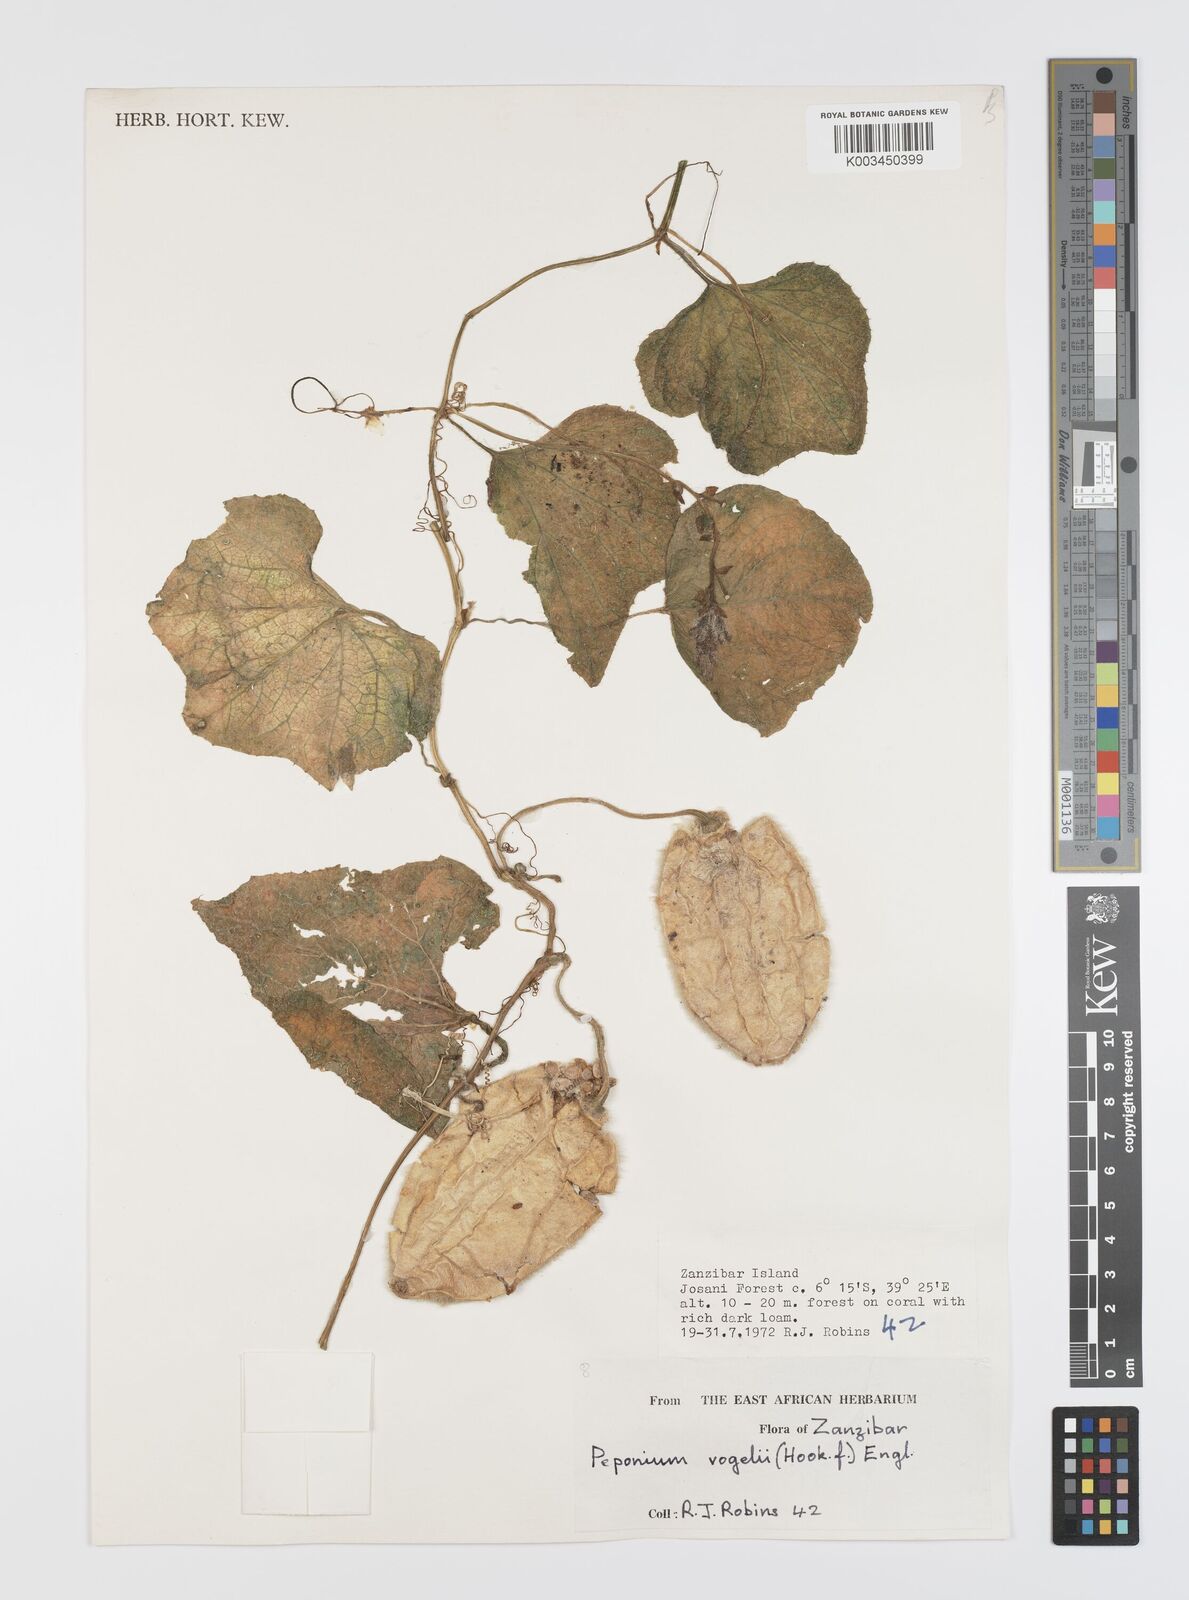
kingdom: Plantae
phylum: Tracheophyta
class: Magnoliopsida
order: Cucurbitales
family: Cucurbitaceae
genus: Peponium
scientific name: Peponium vogelii
